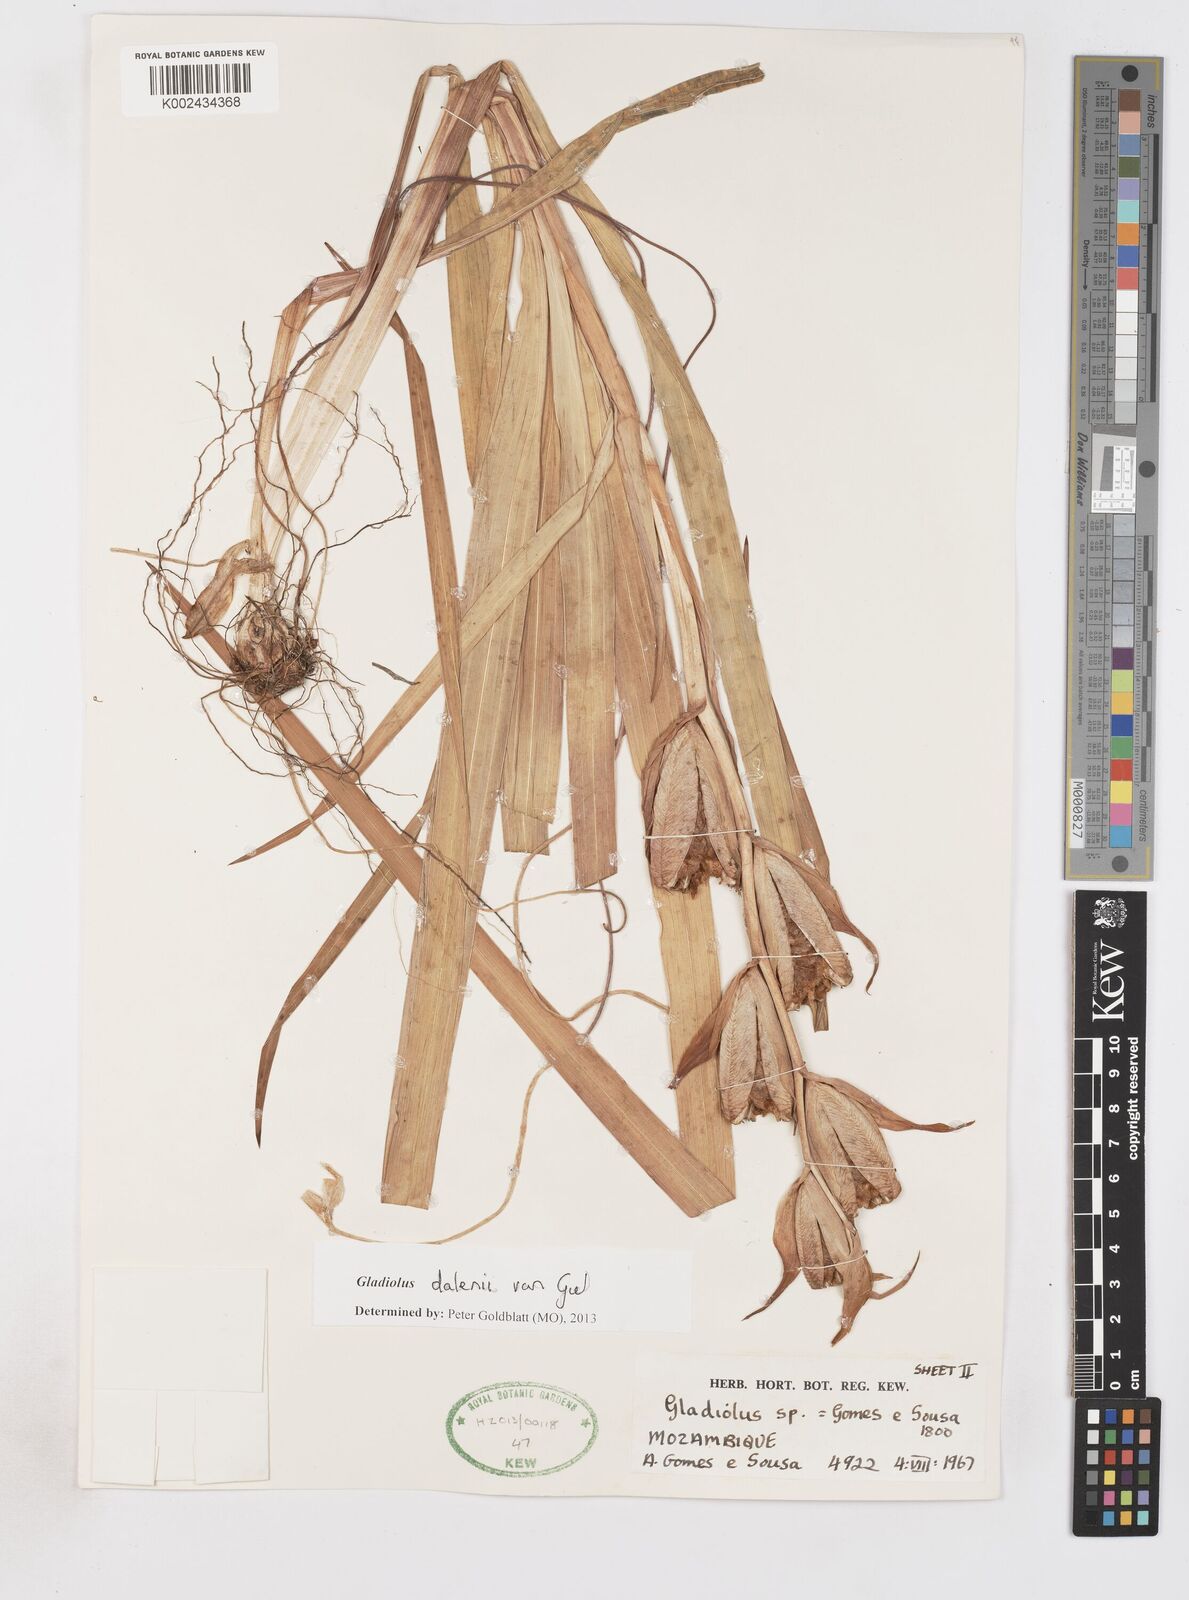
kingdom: Plantae
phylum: Tracheophyta
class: Liliopsida
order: Asparagales
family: Iridaceae
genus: Gladiolus
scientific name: Gladiolus dalenii
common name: Cornflag
